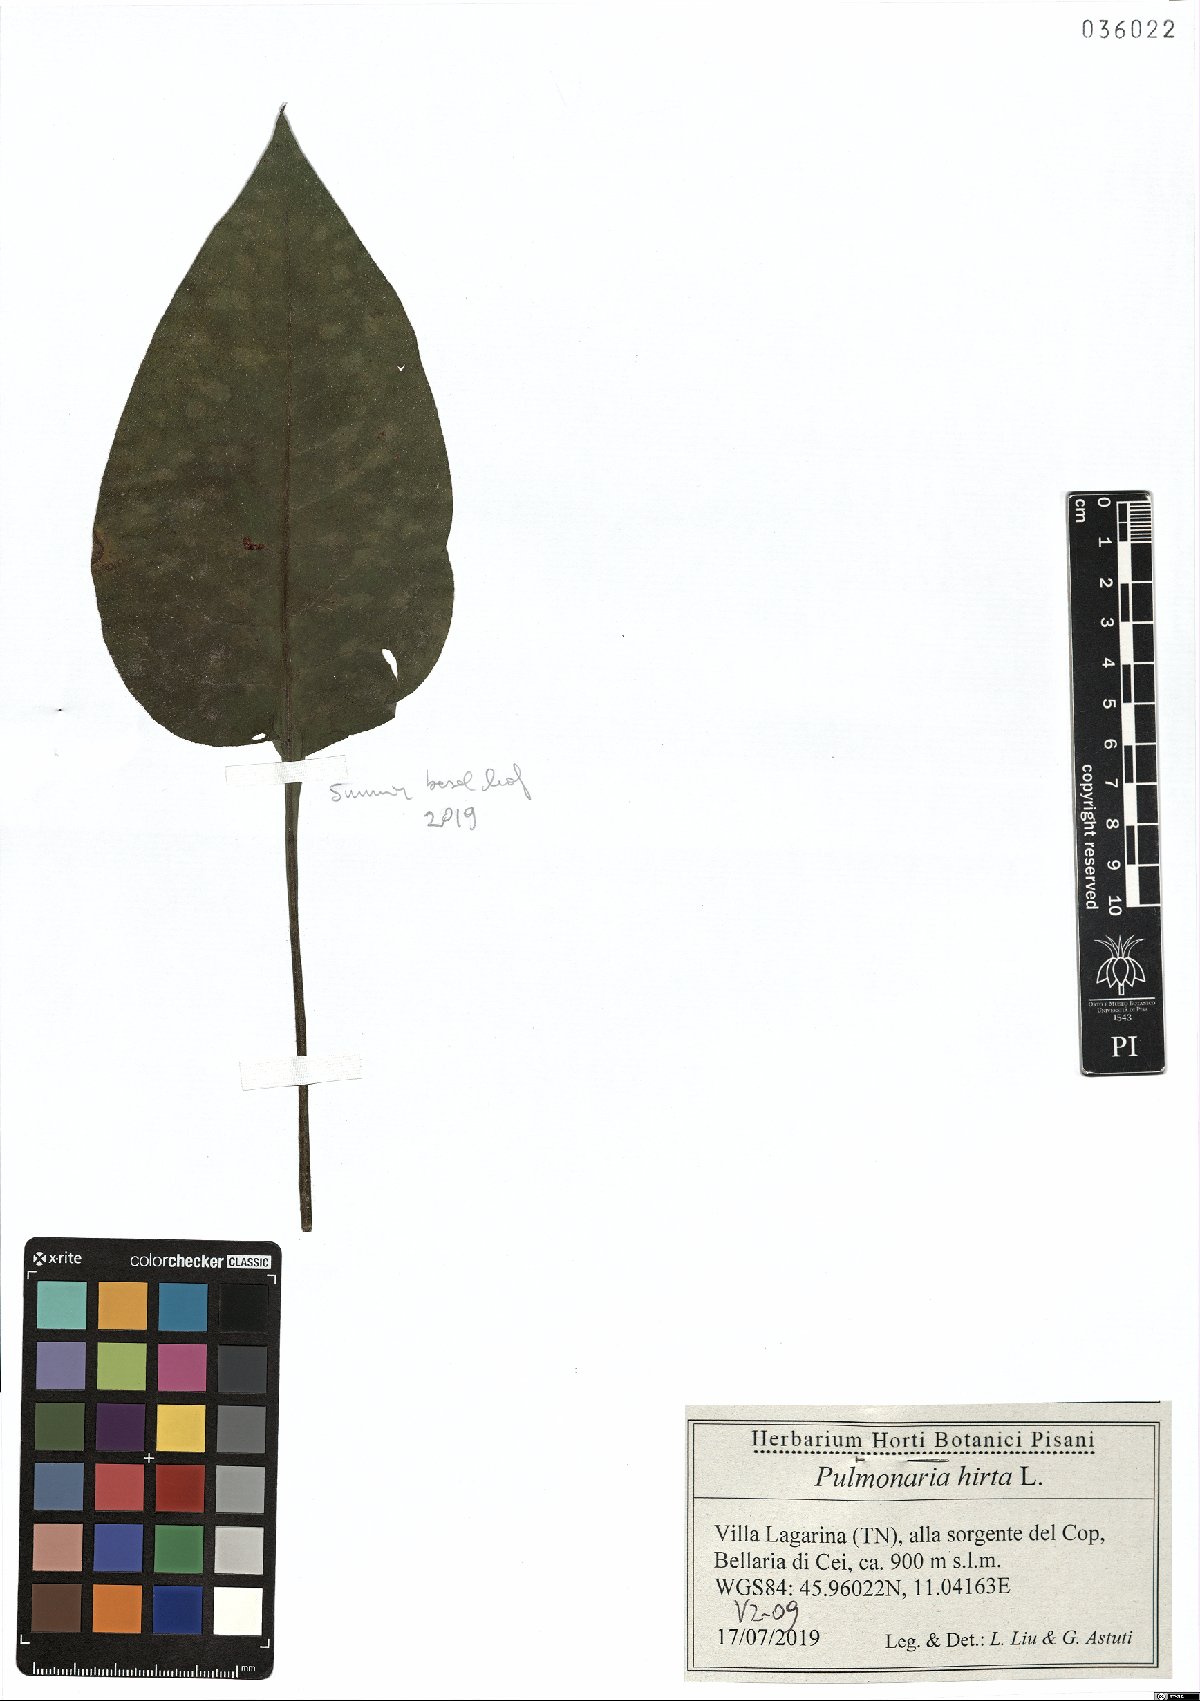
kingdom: Plantae
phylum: Tracheophyta
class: Magnoliopsida
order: Boraginales
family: Boraginaceae
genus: Pulmonaria
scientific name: Pulmonaria hirta
